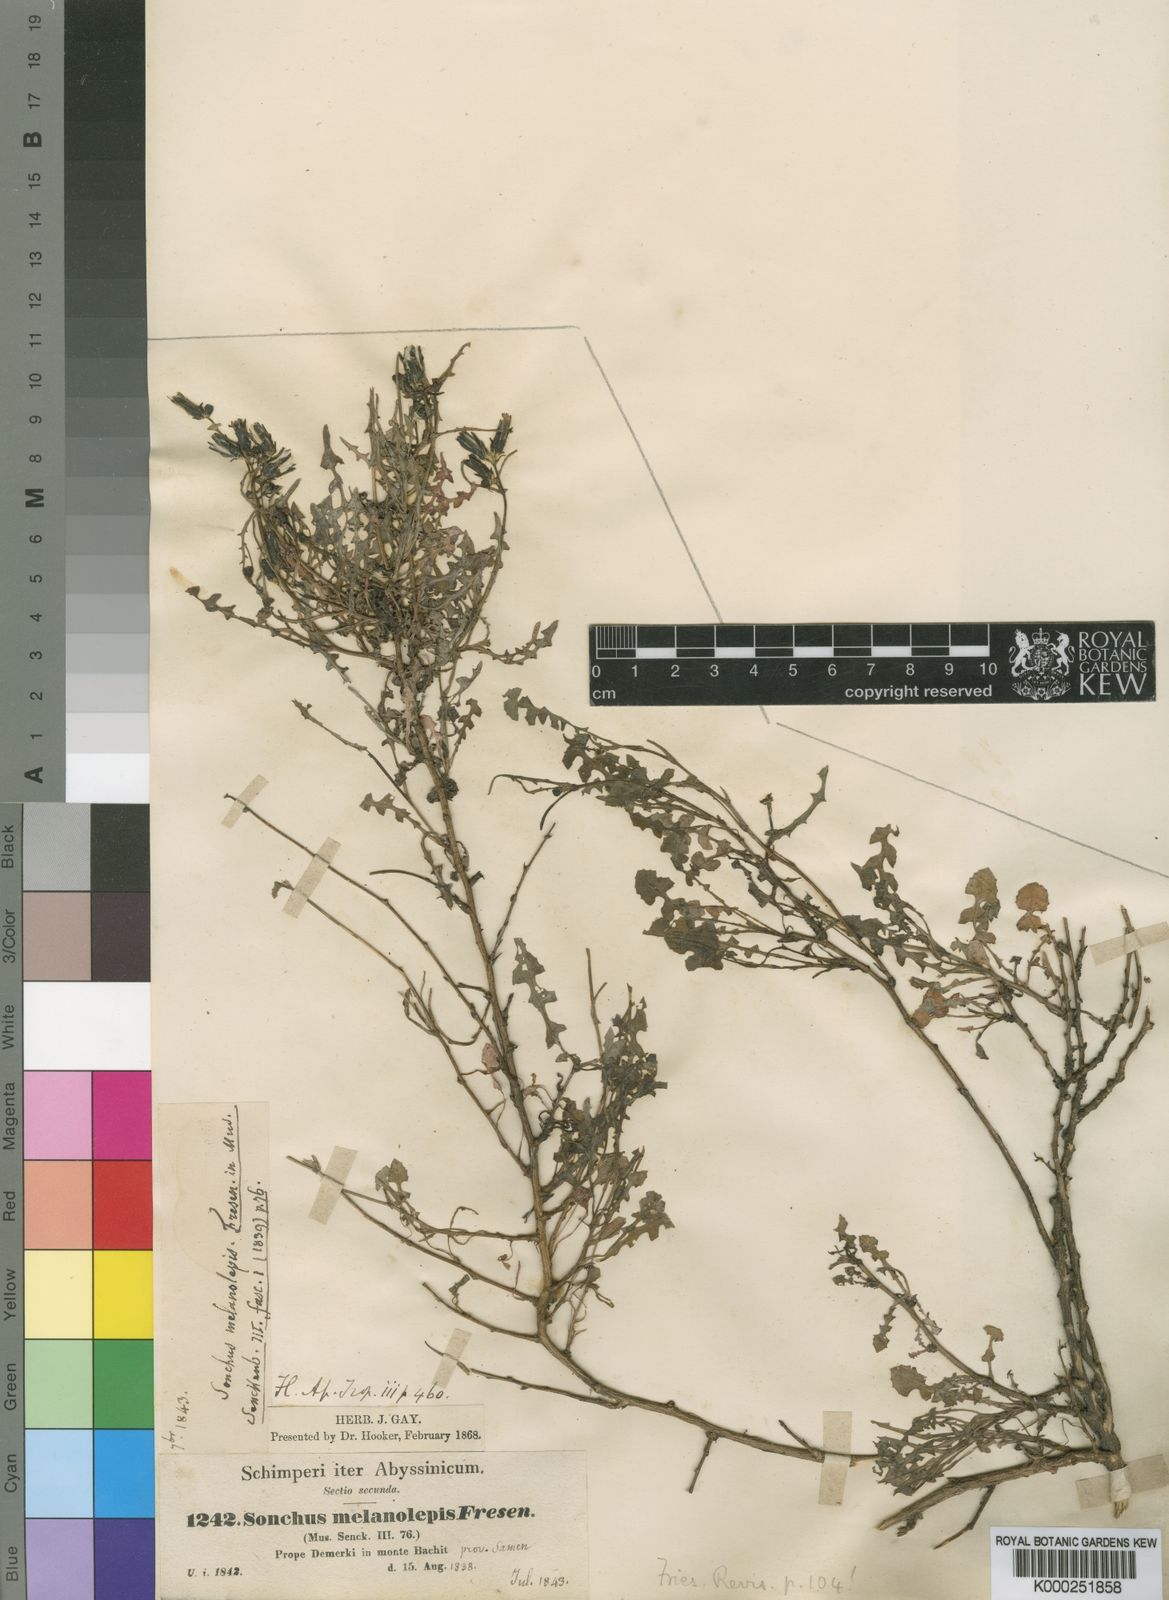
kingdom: Plantae
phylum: Tracheophyta
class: Magnoliopsida
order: Asterales
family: Asteraceae
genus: Sonchus
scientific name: Sonchus melanolepis
